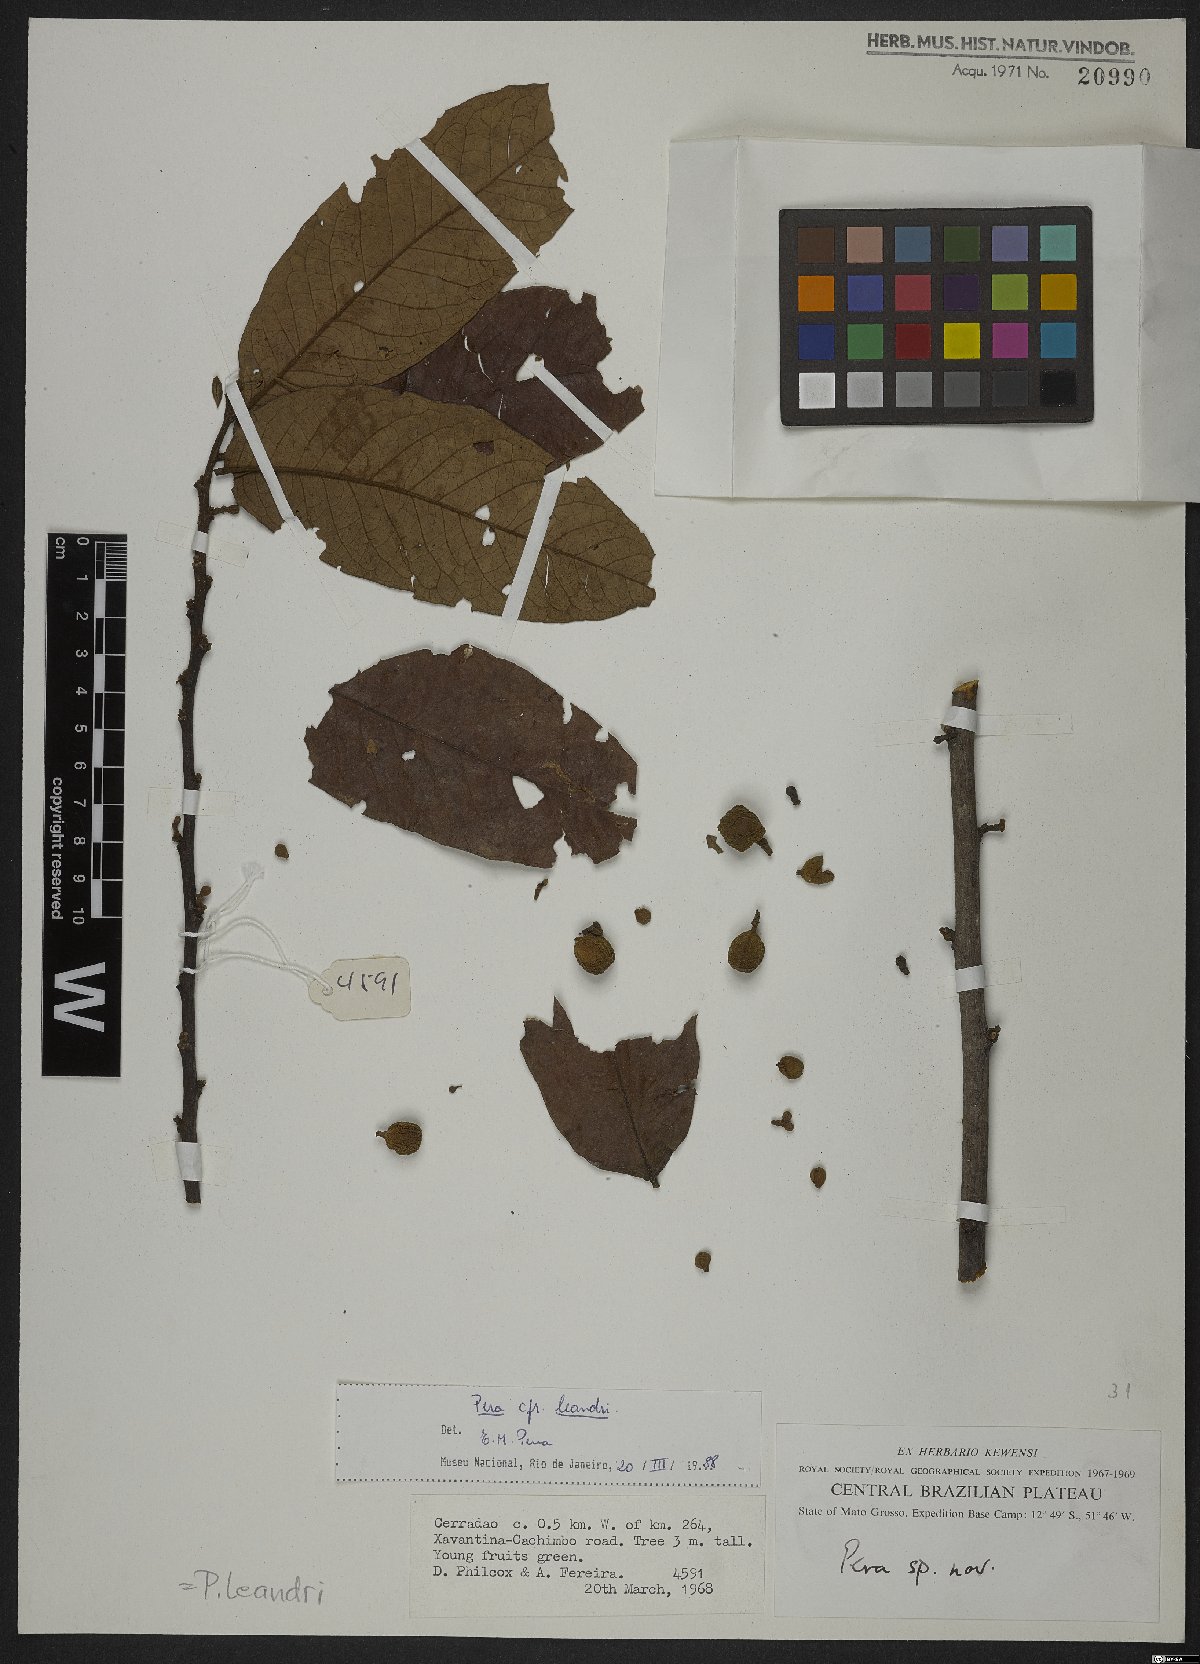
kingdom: Plantae
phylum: Tracheophyta
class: Magnoliopsida
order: Malpighiales
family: Peraceae
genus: Pera
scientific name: Pera heteranthera
